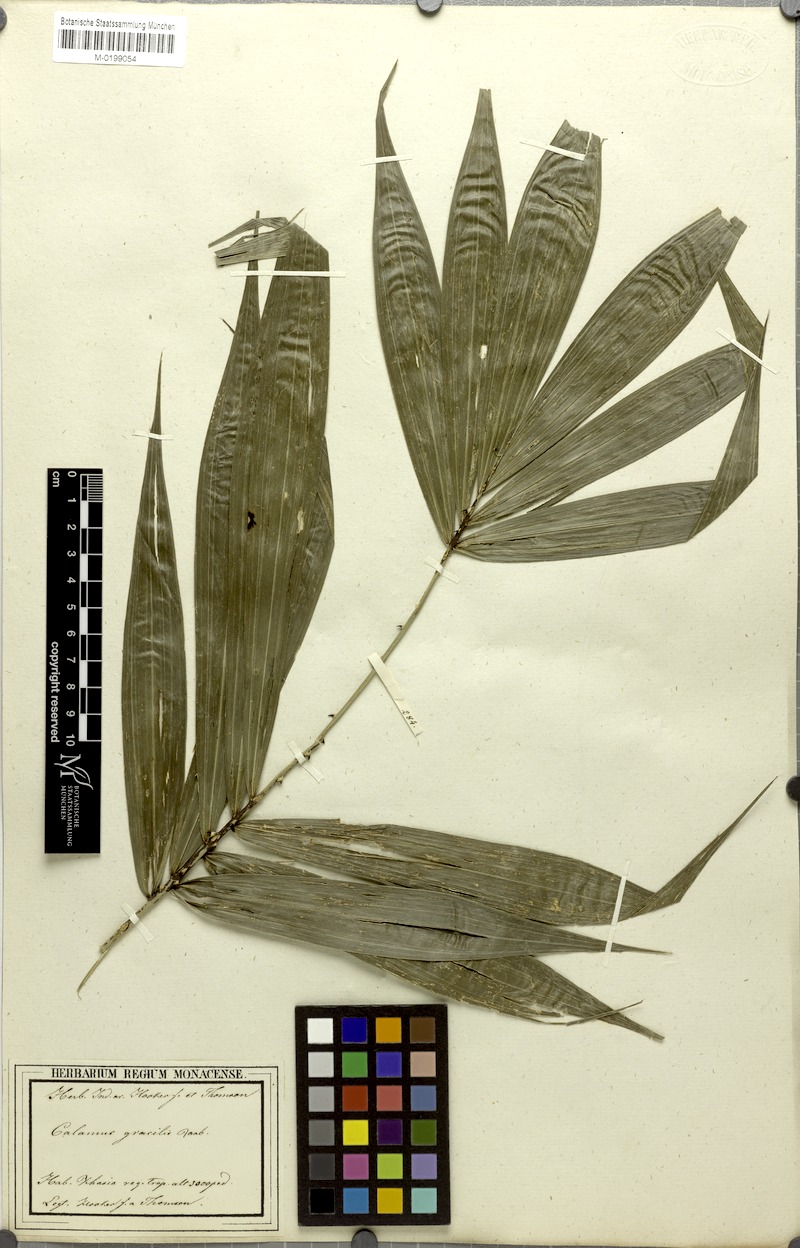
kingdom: Plantae
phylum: Tracheophyta
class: Liliopsida
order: Arecales
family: Arecaceae
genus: Calamus
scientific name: Calamus gracilis
